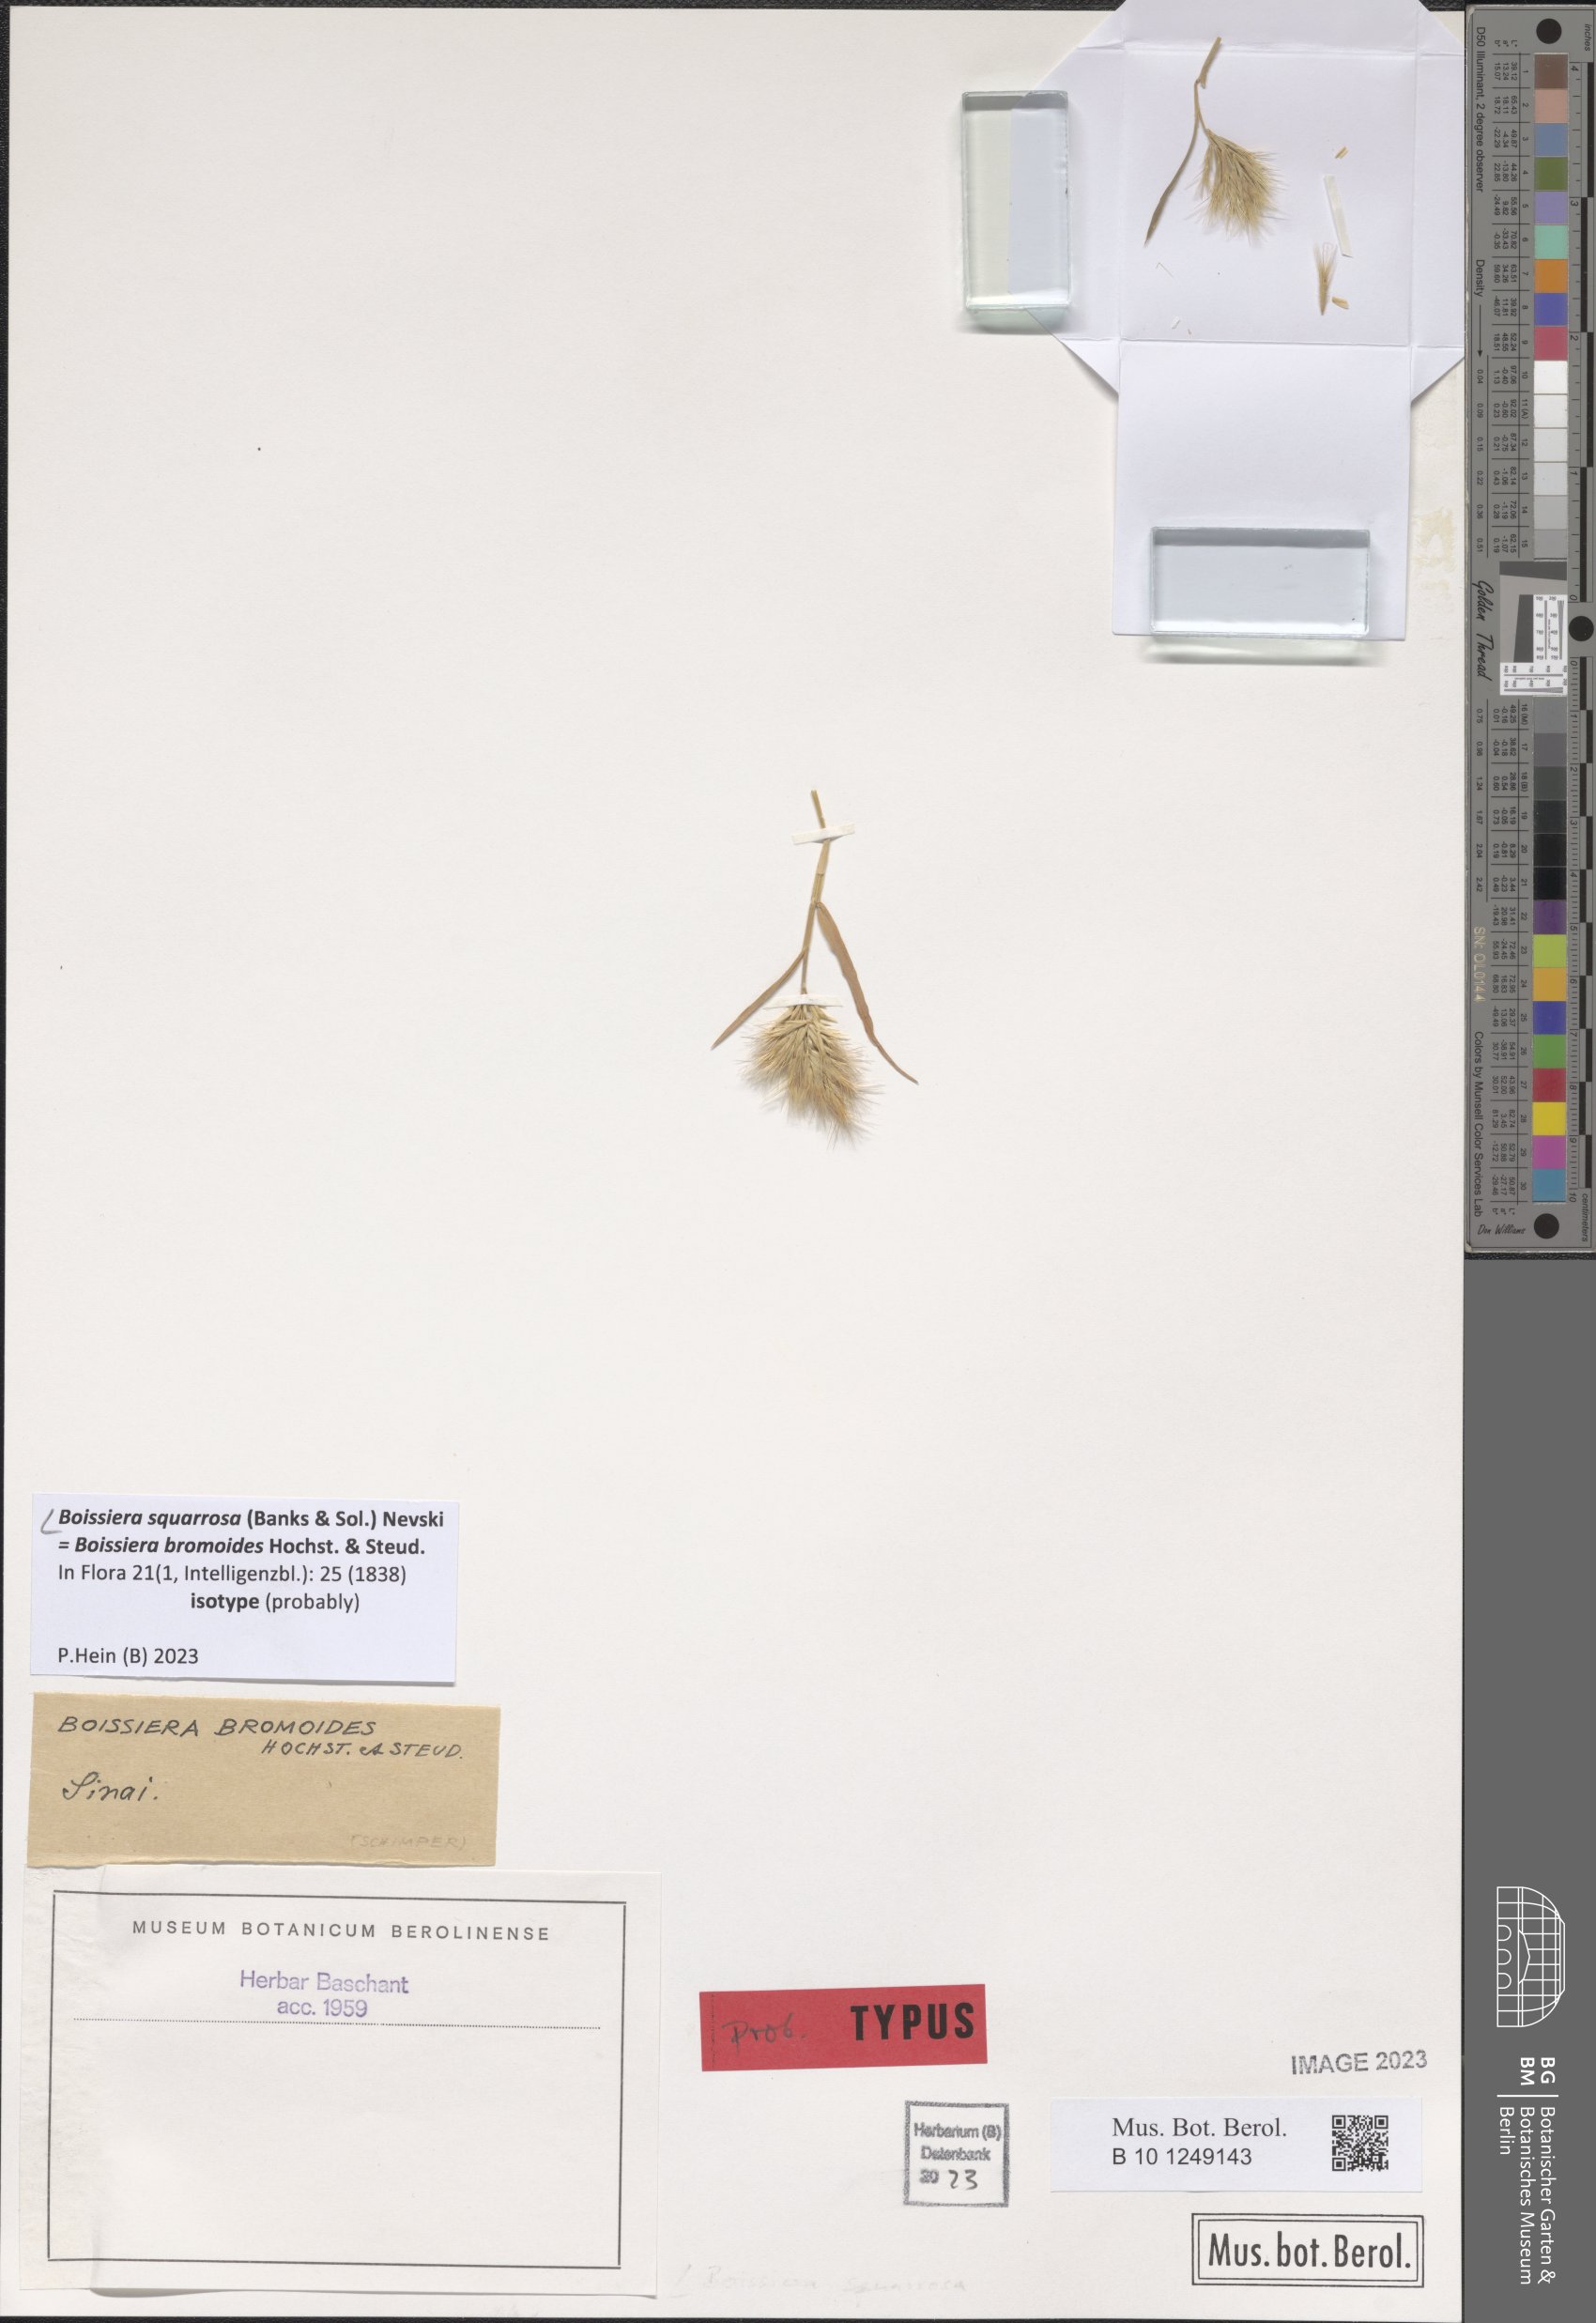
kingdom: Plantae
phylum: Tracheophyta
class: Liliopsida
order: Poales
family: Poaceae
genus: Bromus
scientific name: Bromus pumilio
